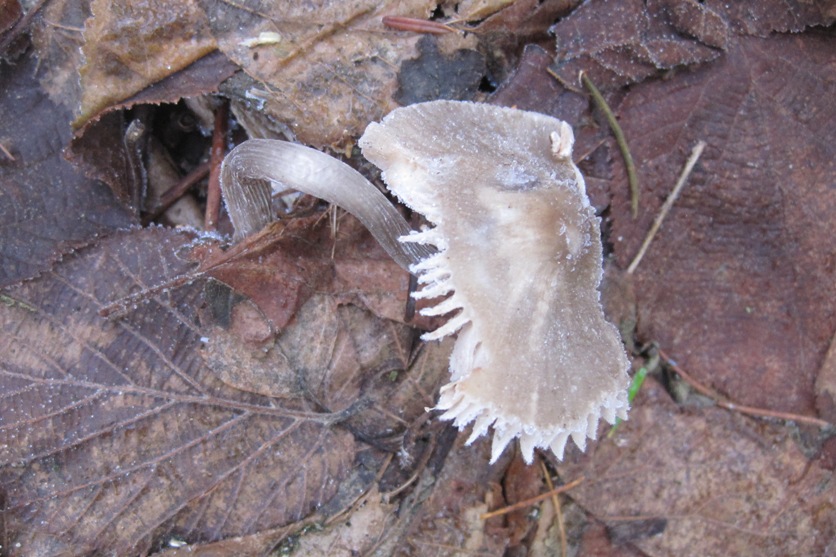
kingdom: Fungi
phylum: Basidiomycota
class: Agaricomycetes
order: Agaricales
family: Mycenaceae
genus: Mycena
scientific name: Mycena polygramma
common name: mangestribet huesvamp
